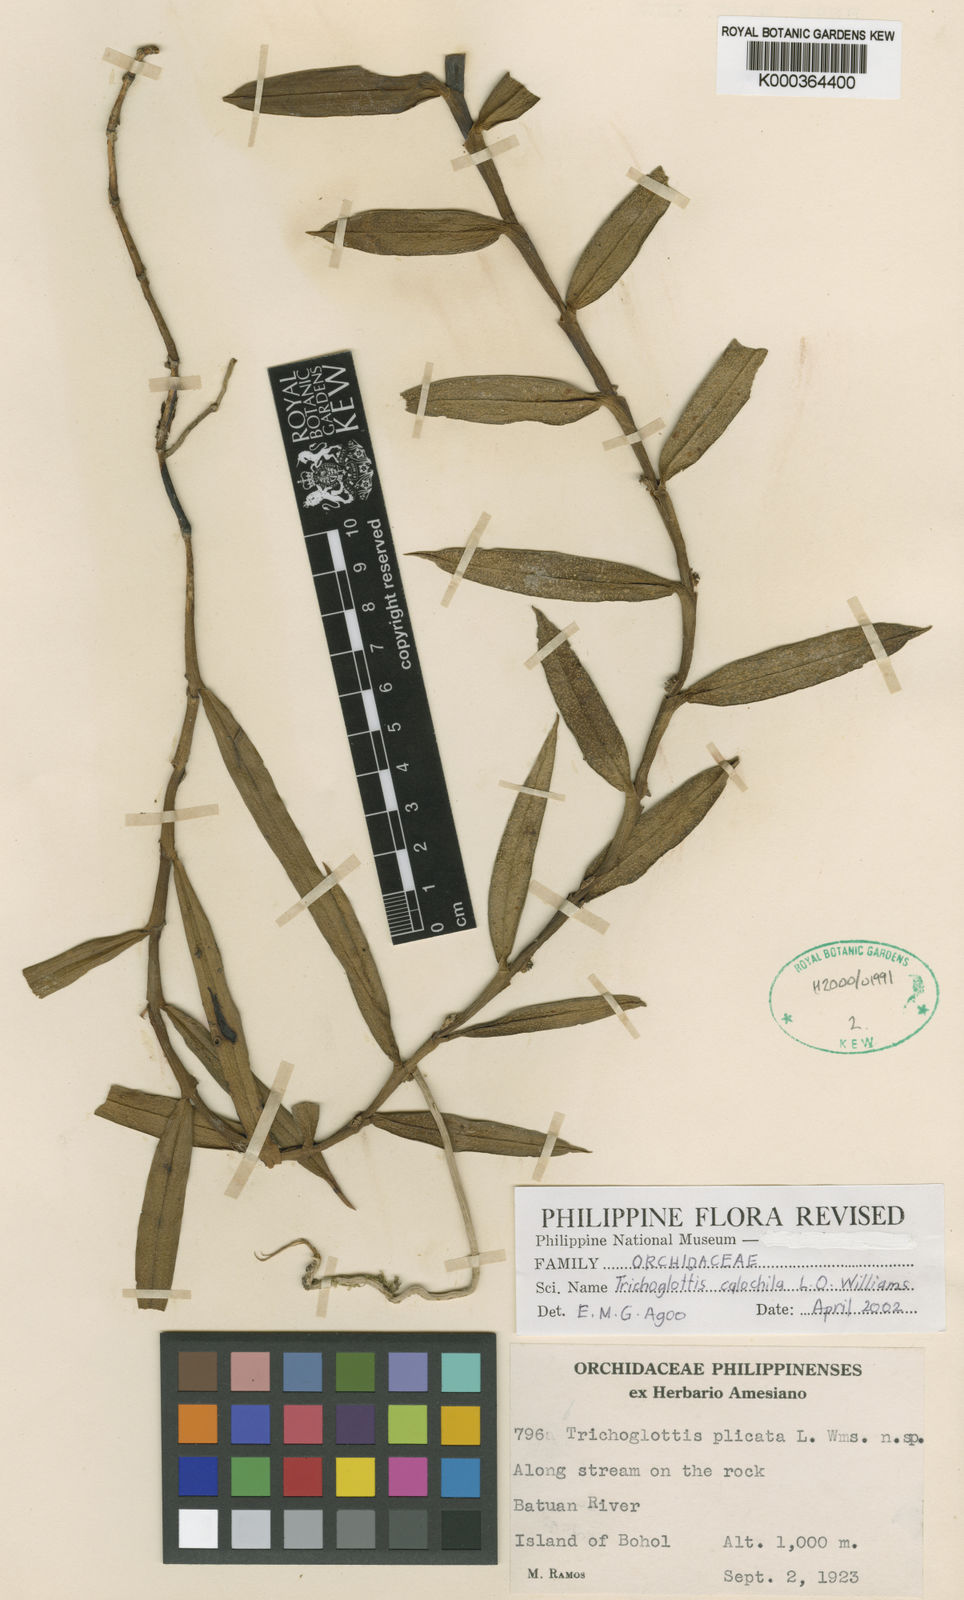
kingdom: Plantae
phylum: Tracheophyta
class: Liliopsida
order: Asparagales
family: Orchidaceae
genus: Trichoglottis
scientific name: Trichoglottis calochila
